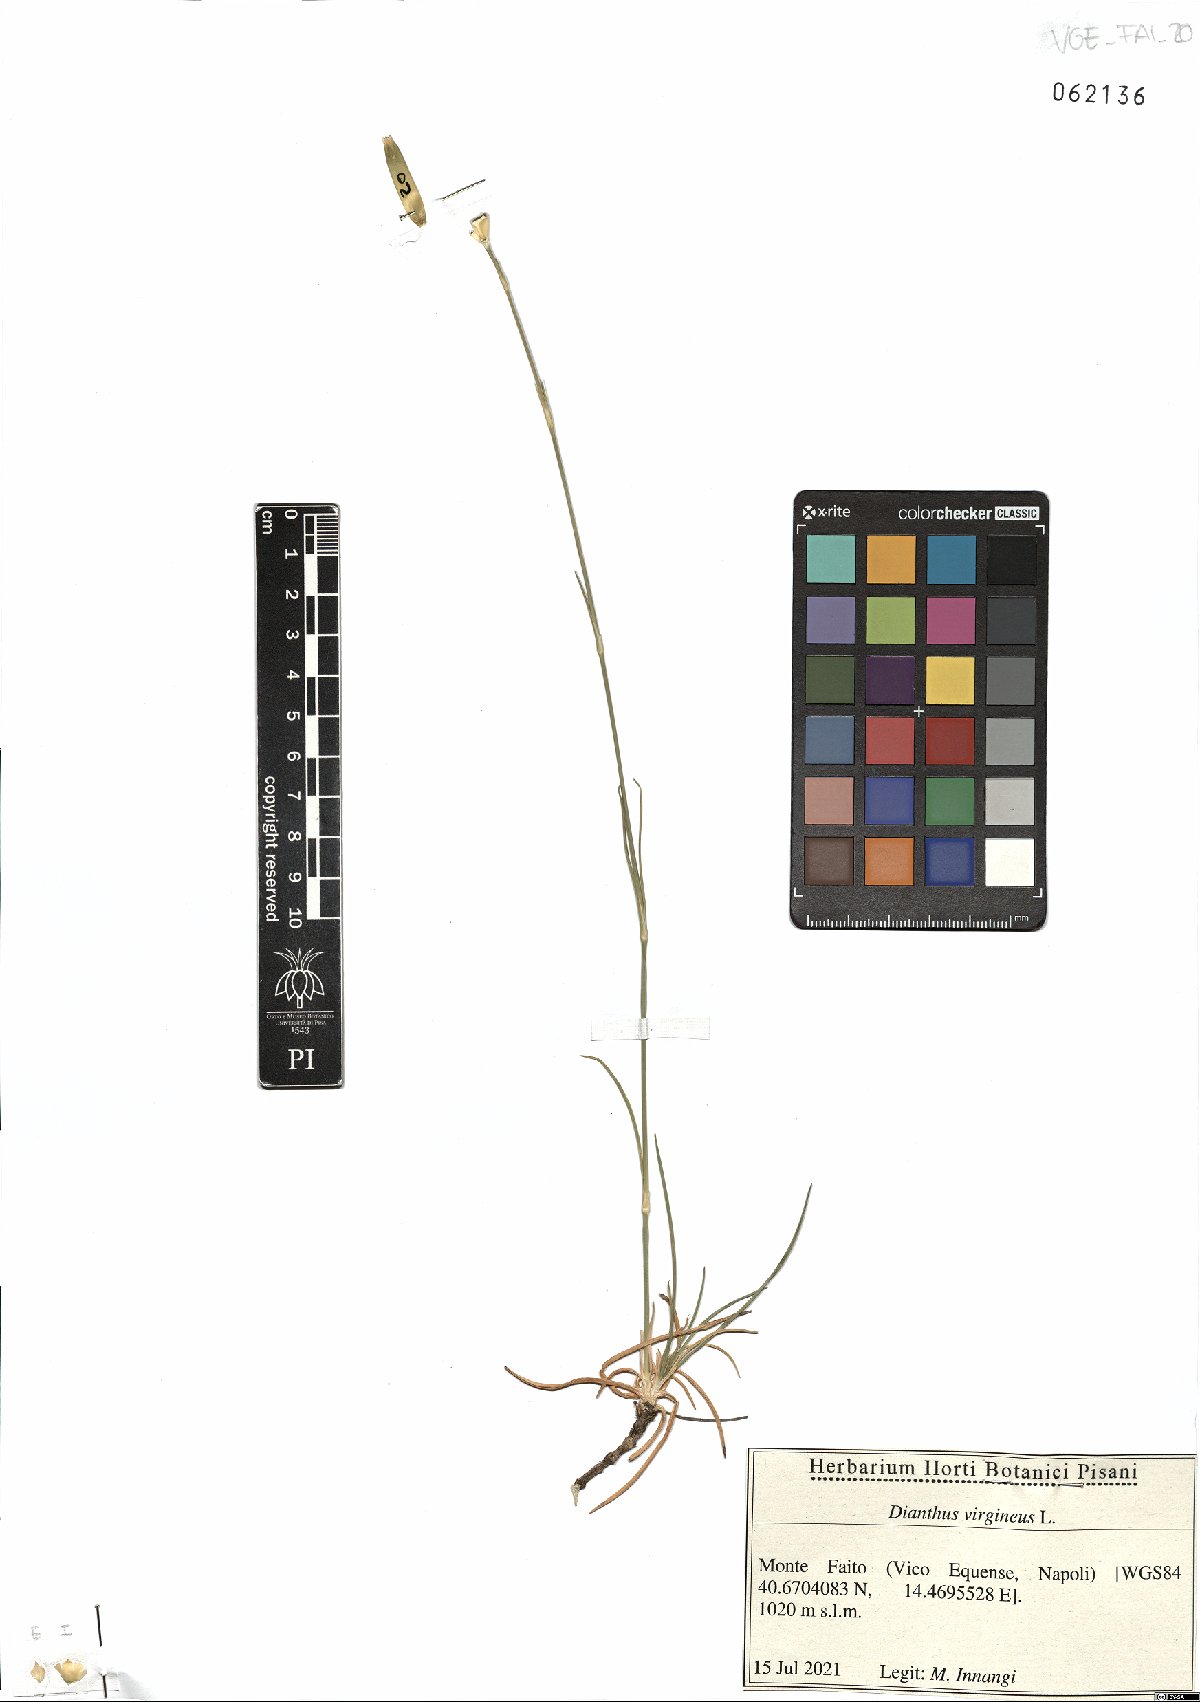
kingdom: Plantae
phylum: Tracheophyta
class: Magnoliopsida
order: Caryophyllales
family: Caryophyllaceae
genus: Dianthus
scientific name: Dianthus virgineus
